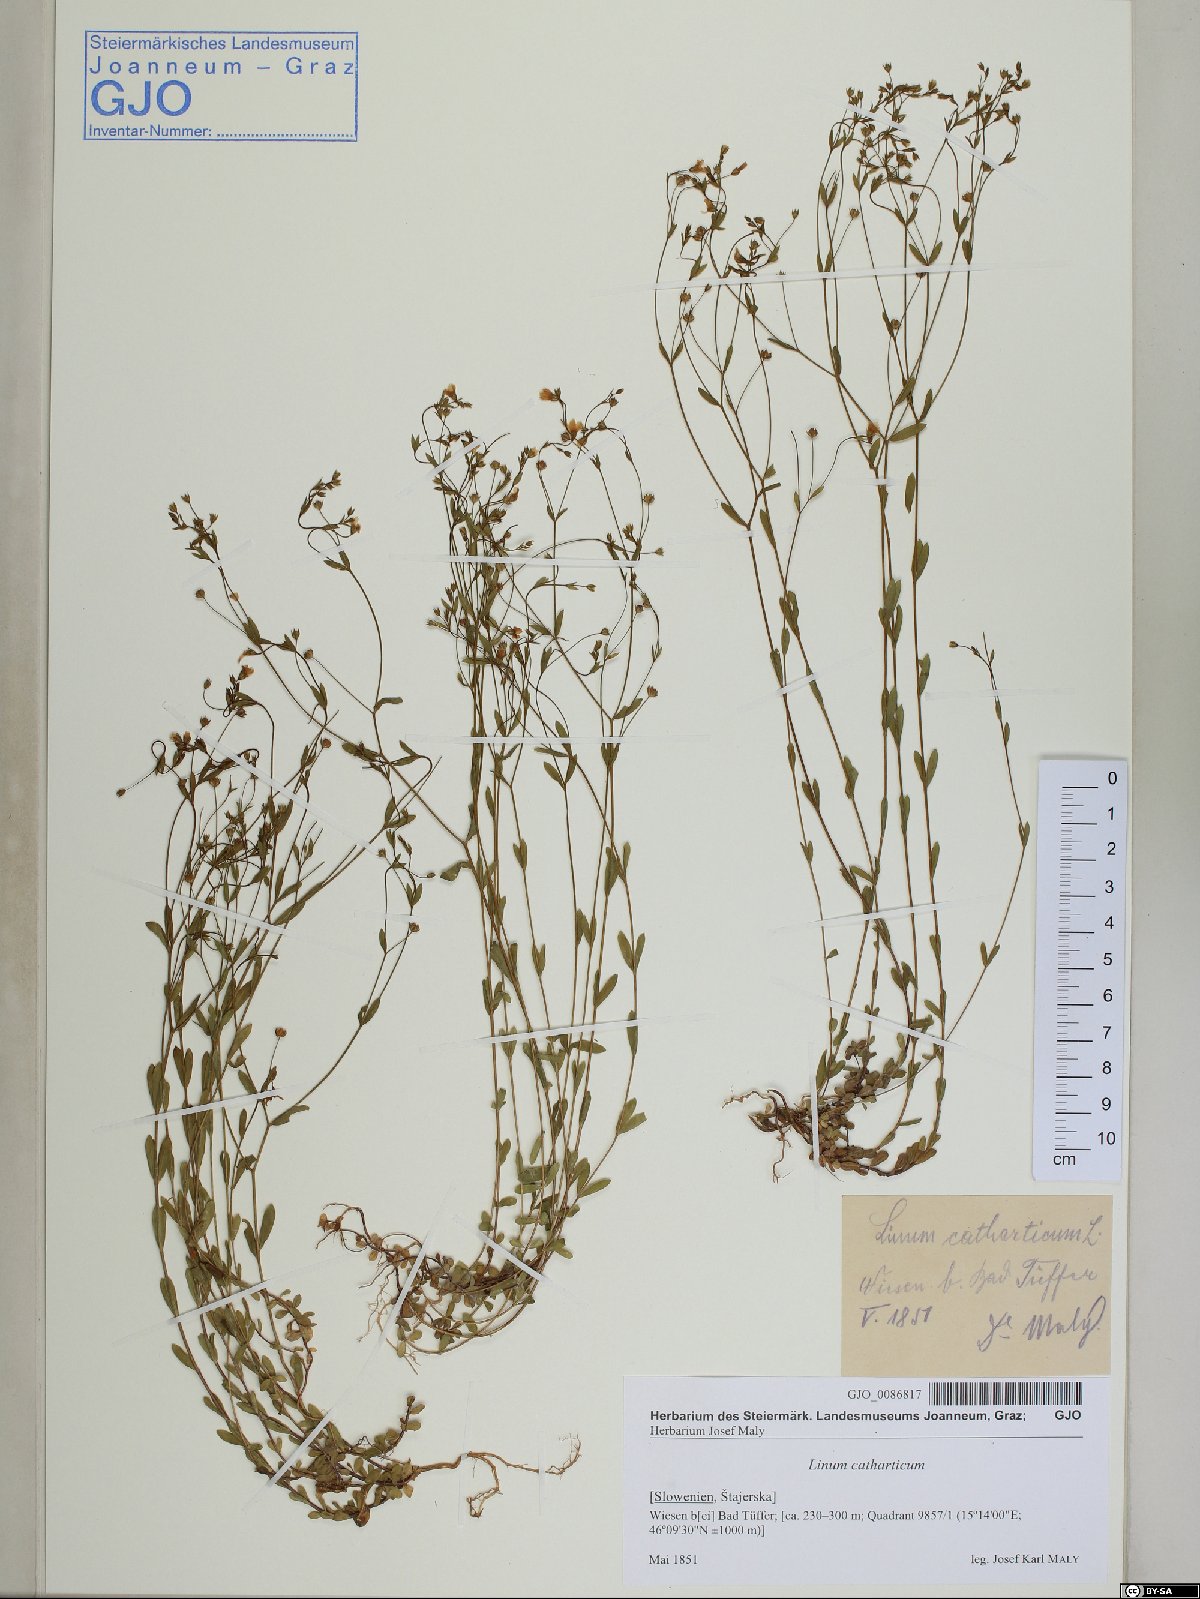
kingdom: Plantae
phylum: Tracheophyta
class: Magnoliopsida
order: Malpighiales
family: Linaceae
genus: Linum
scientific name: Linum catharticum
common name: Fairy flax
